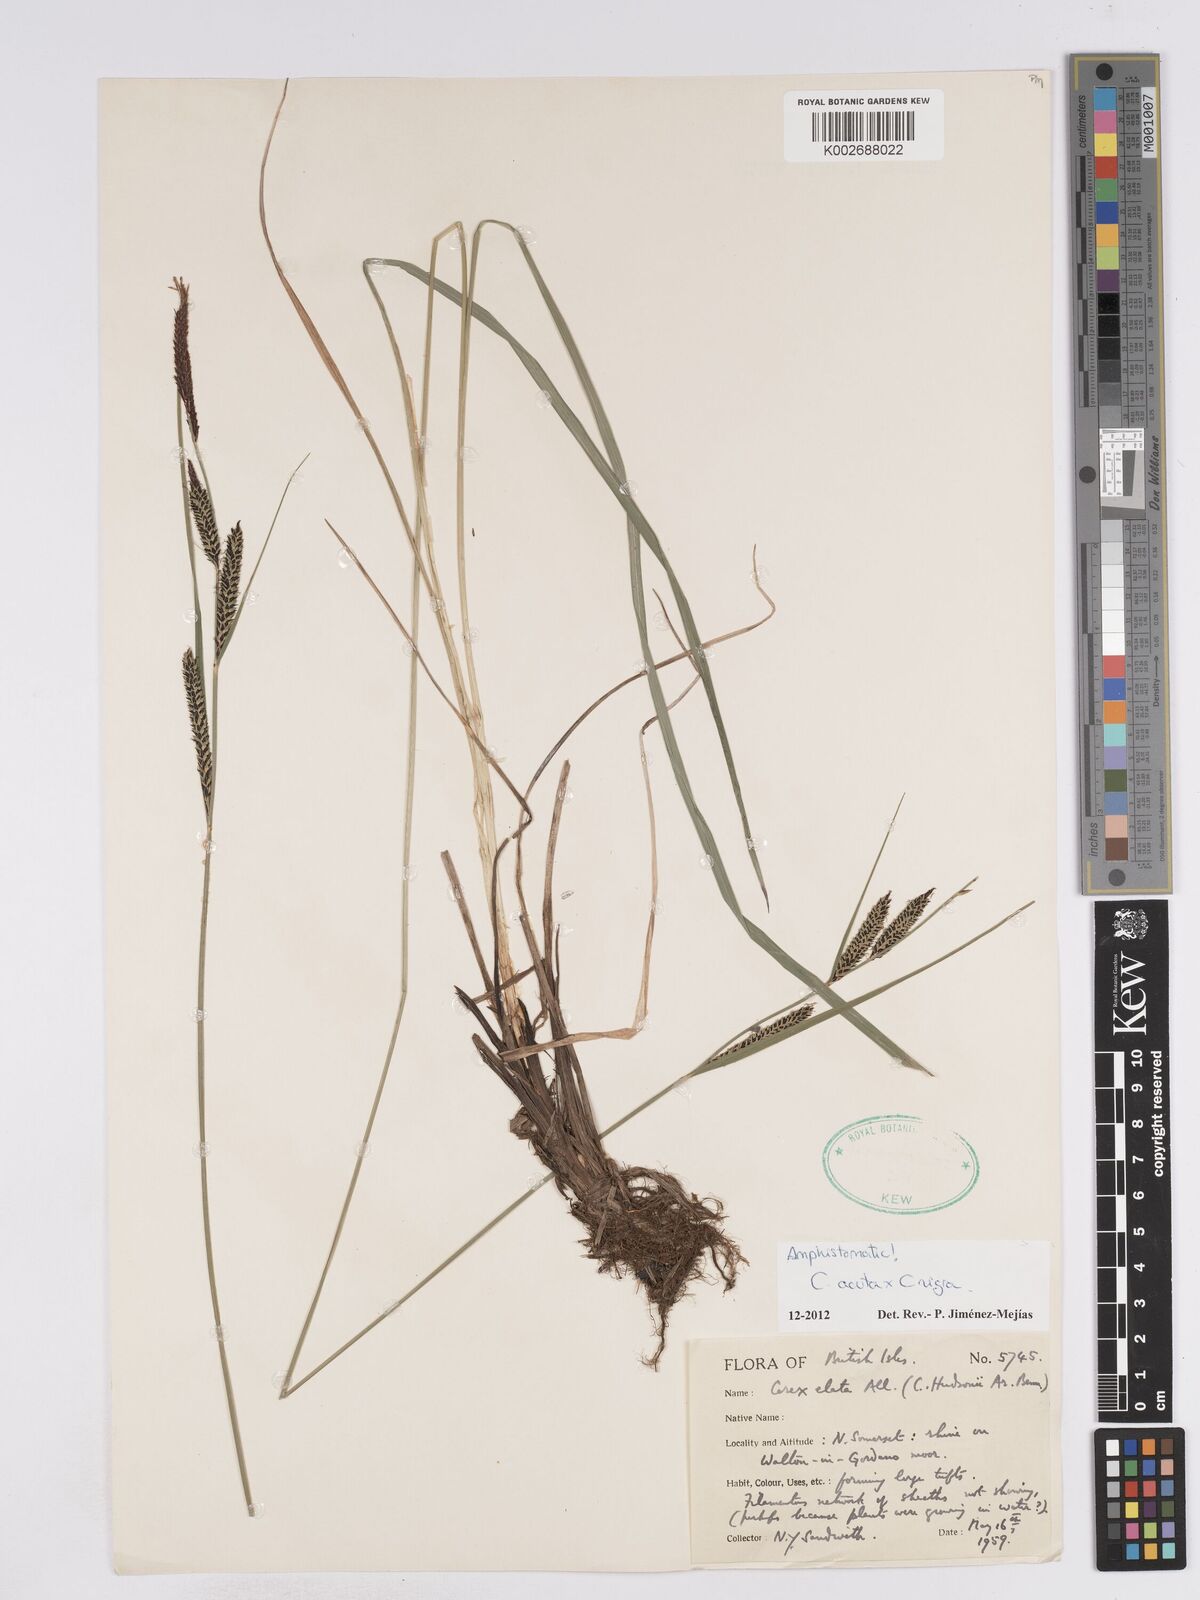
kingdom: Plantae
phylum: Tracheophyta
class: Liliopsida
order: Poales
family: Cyperaceae
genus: Carex
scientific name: Carex acuta
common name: Slender tufted-sedge
